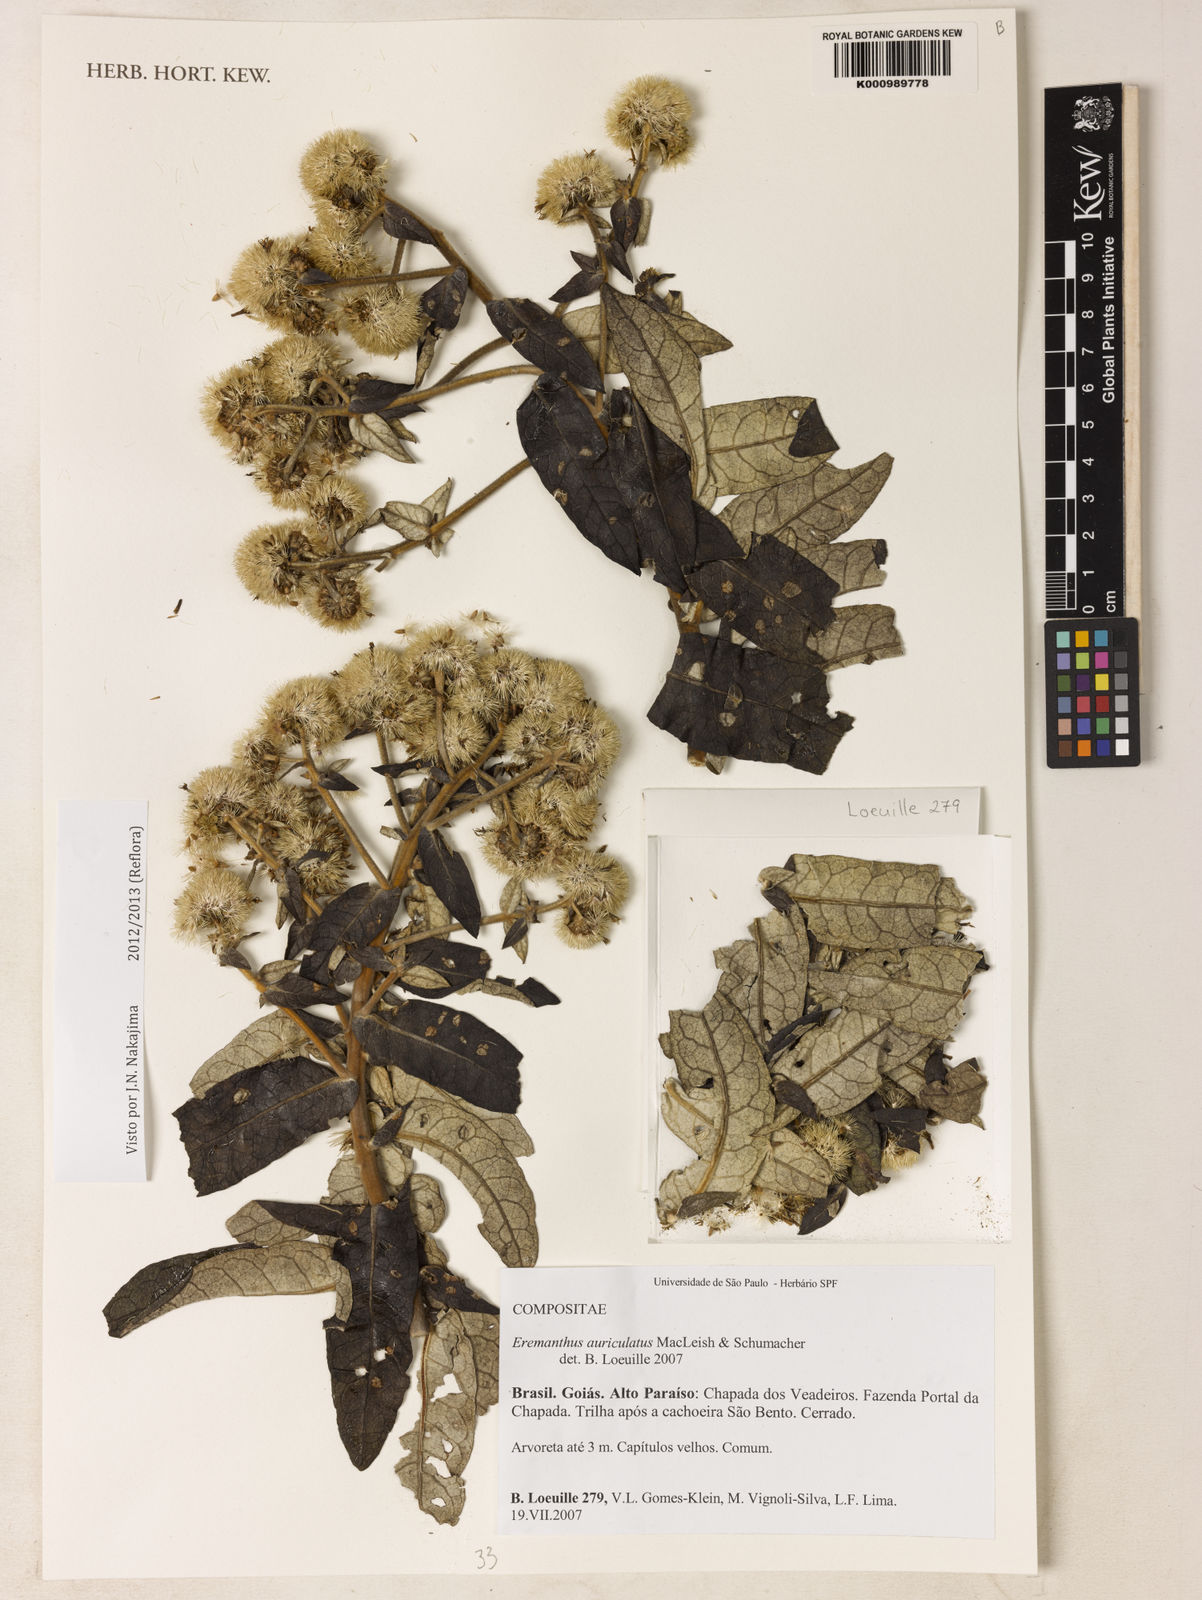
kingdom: Plantae
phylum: Tracheophyta
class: Magnoliopsida
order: Asterales
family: Asteraceae
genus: Eremanthus
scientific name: Eremanthus auriculatus
